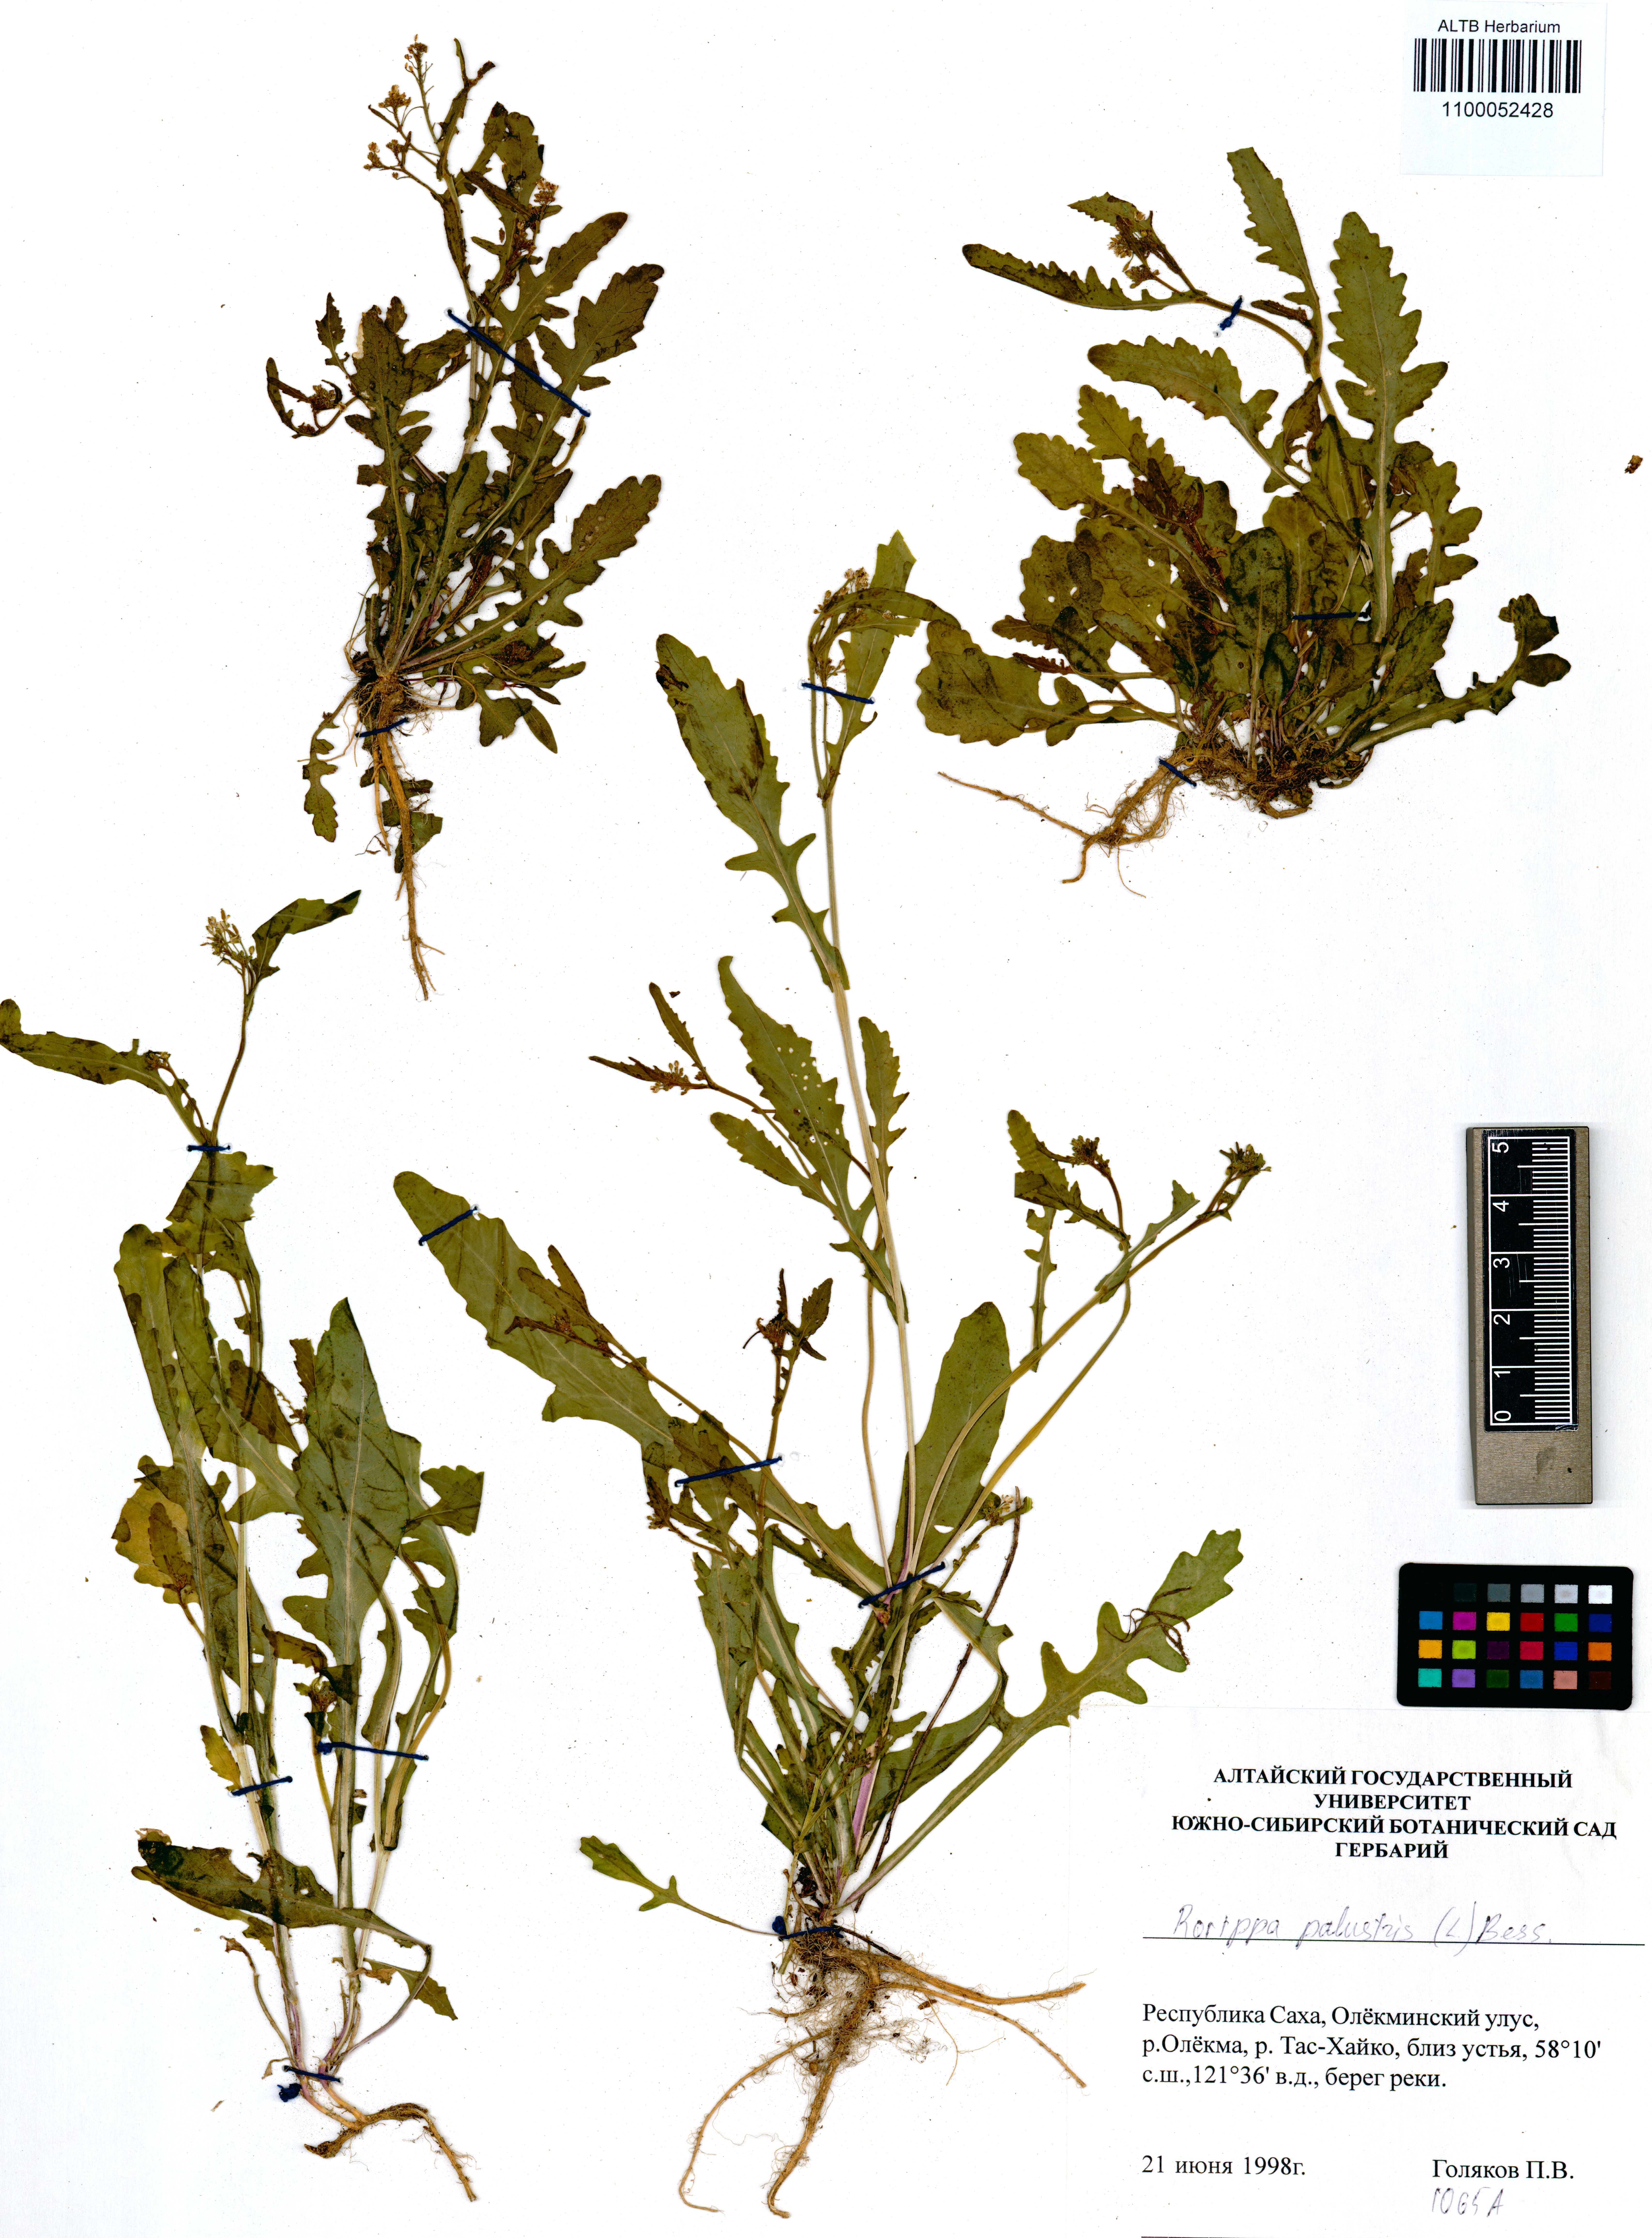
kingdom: Plantae
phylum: Tracheophyta
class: Magnoliopsida
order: Brassicales
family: Brassicaceae
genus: Rorippa
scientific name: Rorippa palustris
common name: Marsh yellow-cress
